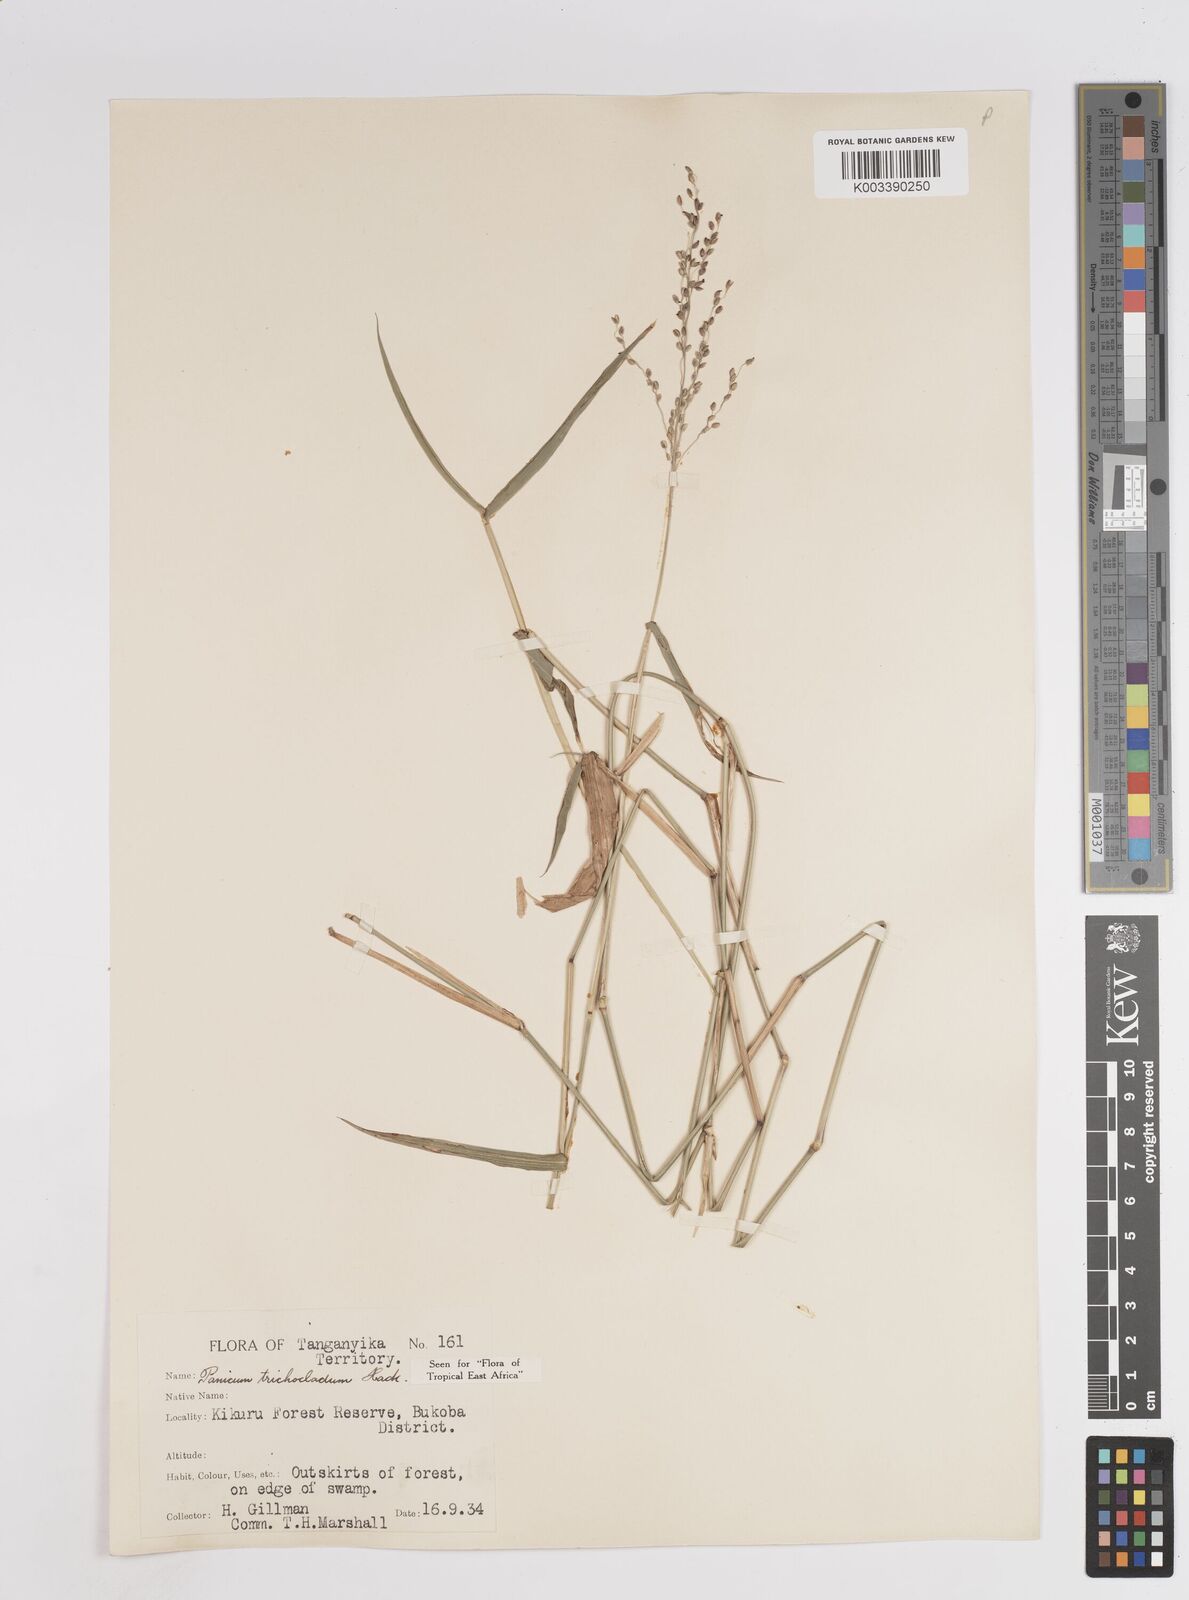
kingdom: Plantae
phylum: Tracheophyta
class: Liliopsida
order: Poales
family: Poaceae
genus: Panicum
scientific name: Panicum trichocladum
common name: Donkey grass
